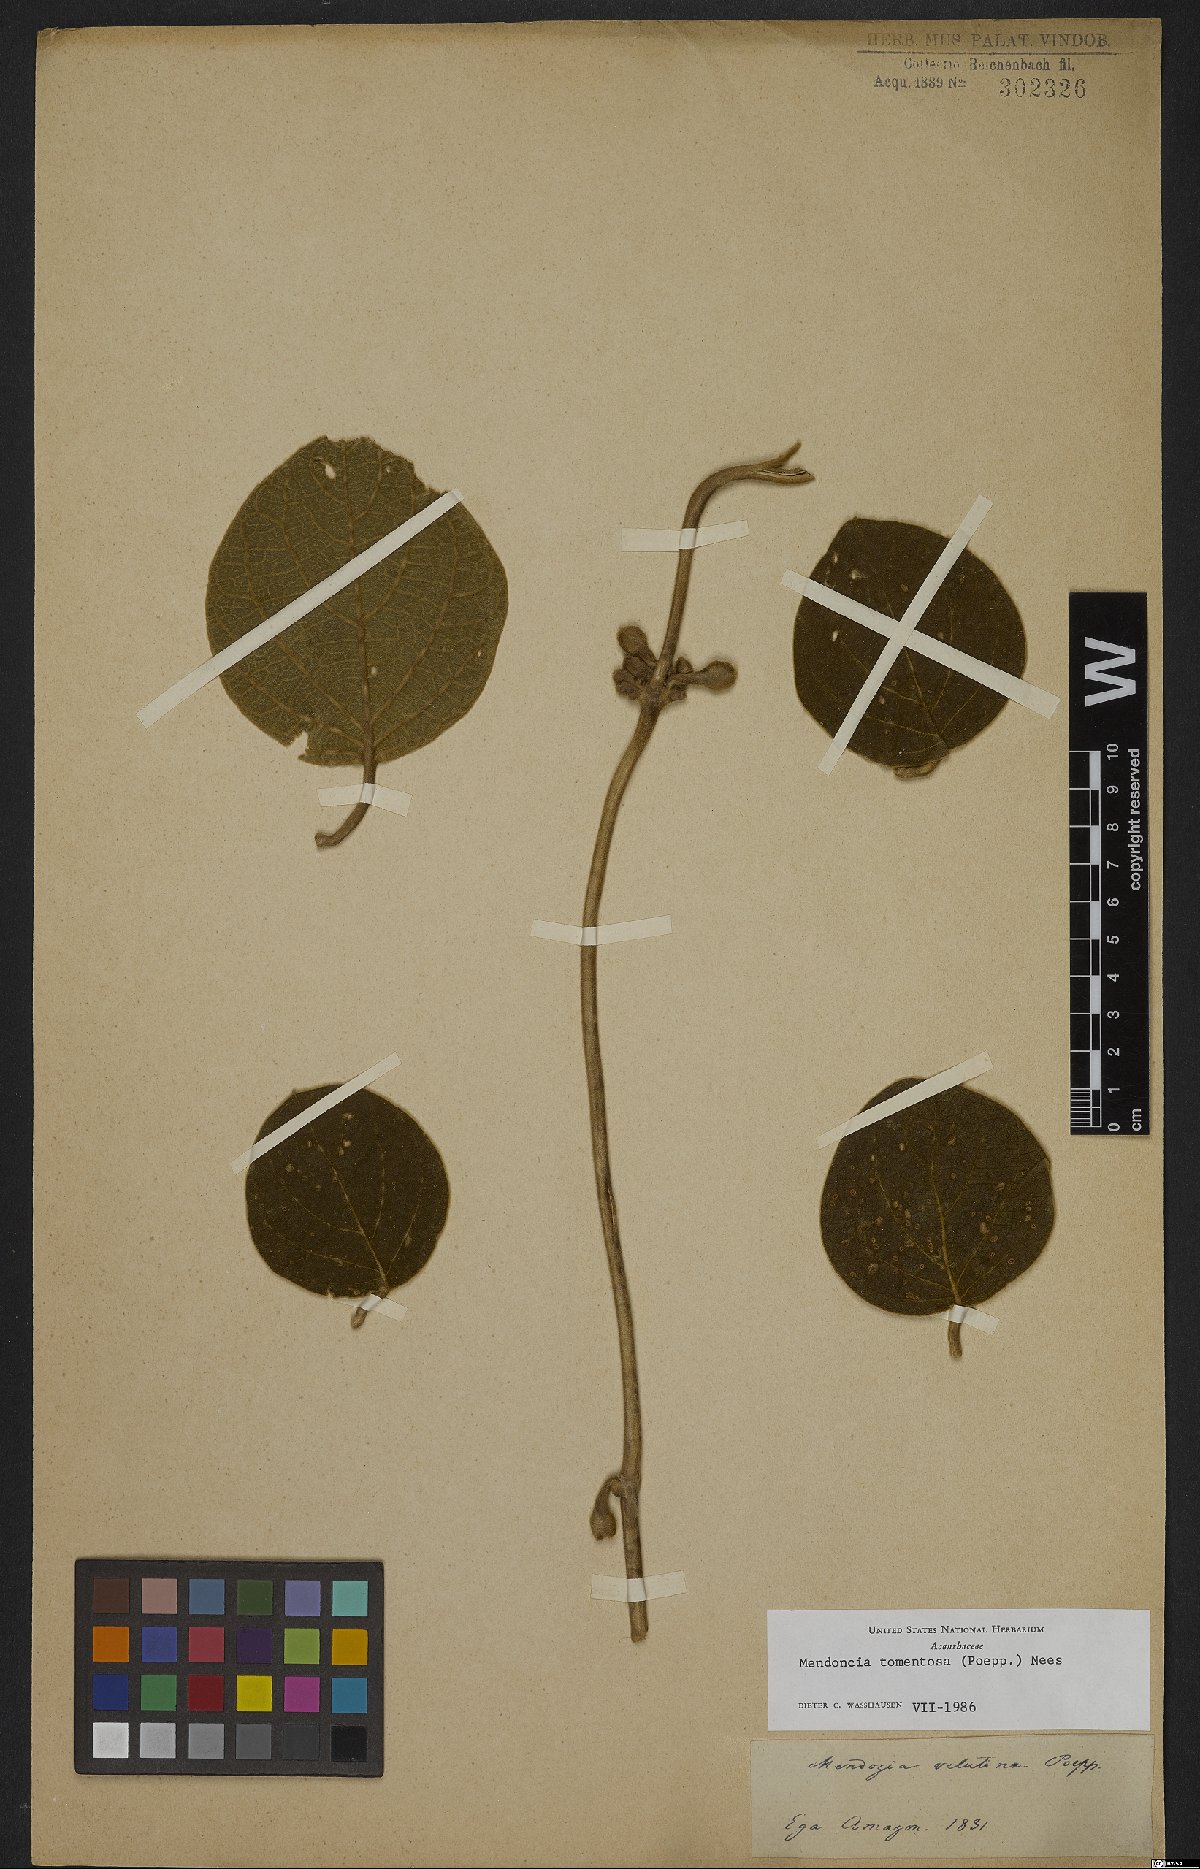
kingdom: Plantae
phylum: Tracheophyta
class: Magnoliopsida
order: Lamiales
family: Acanthaceae
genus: Mendoncia
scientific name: Mendoncia tomentosa
